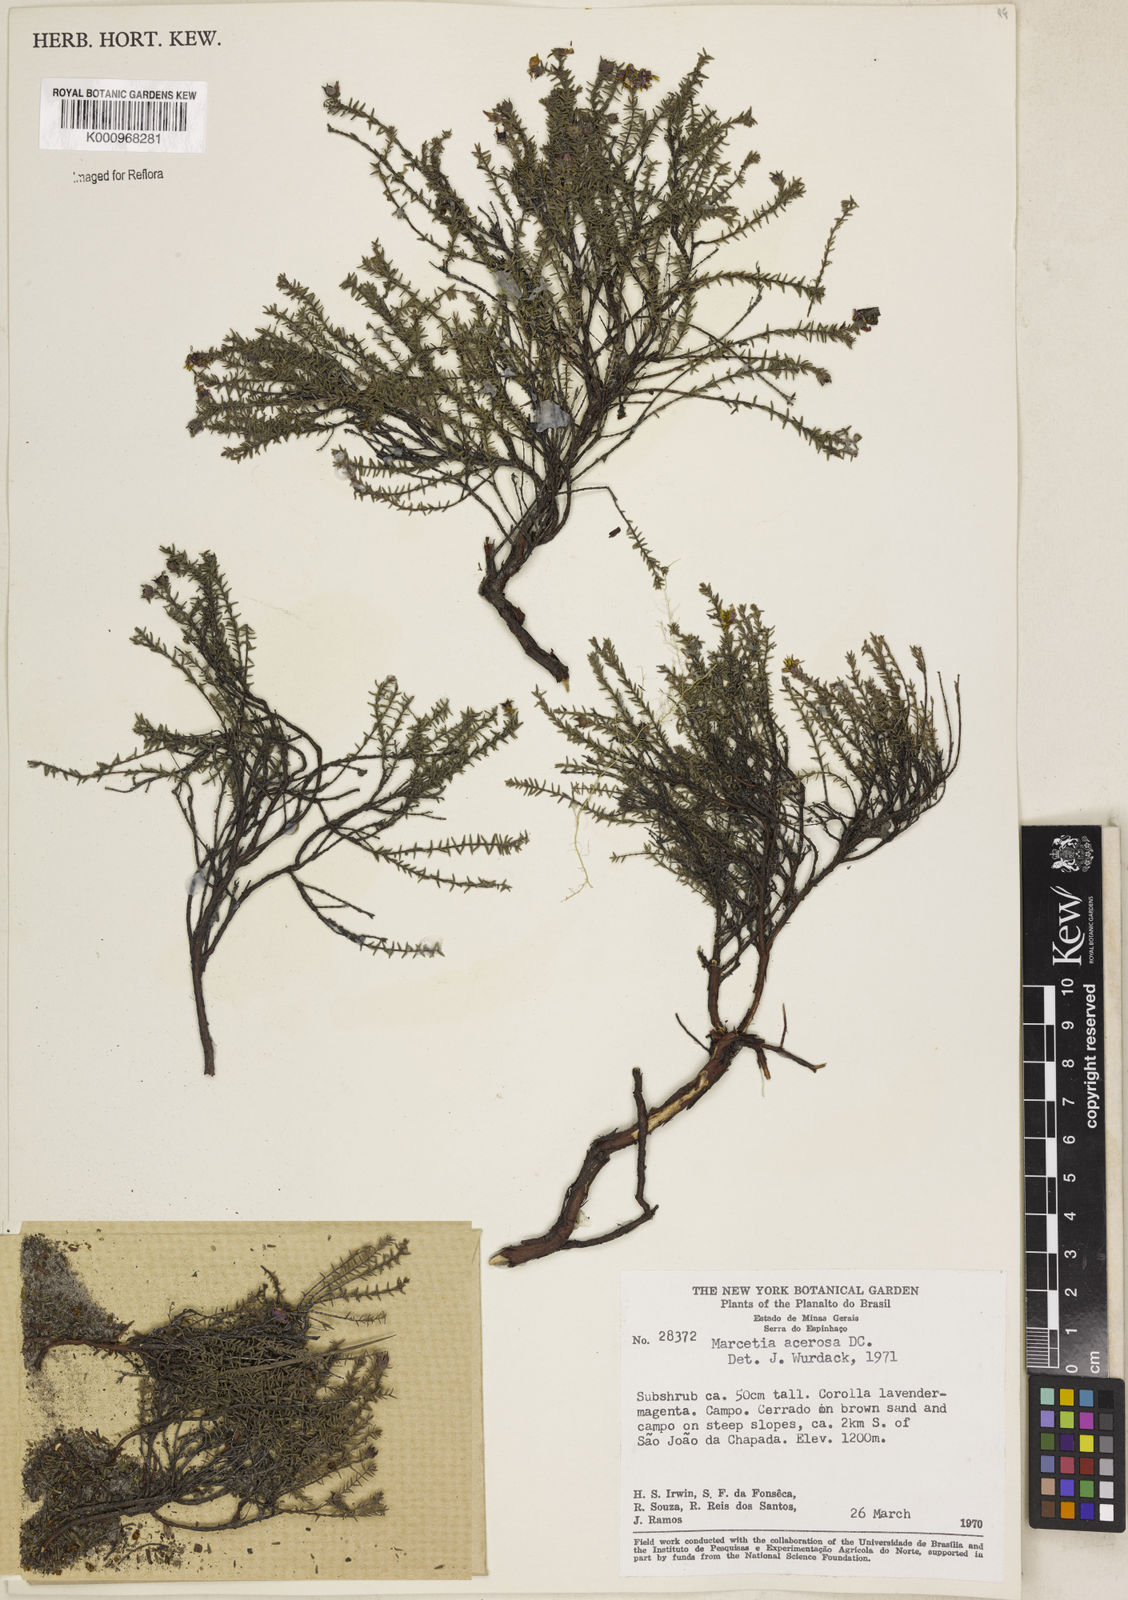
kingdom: Plantae
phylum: Tracheophyta
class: Magnoliopsida
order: Myrtales
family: Melastomataceae
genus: Marcetia
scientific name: Marcetia acerosa
